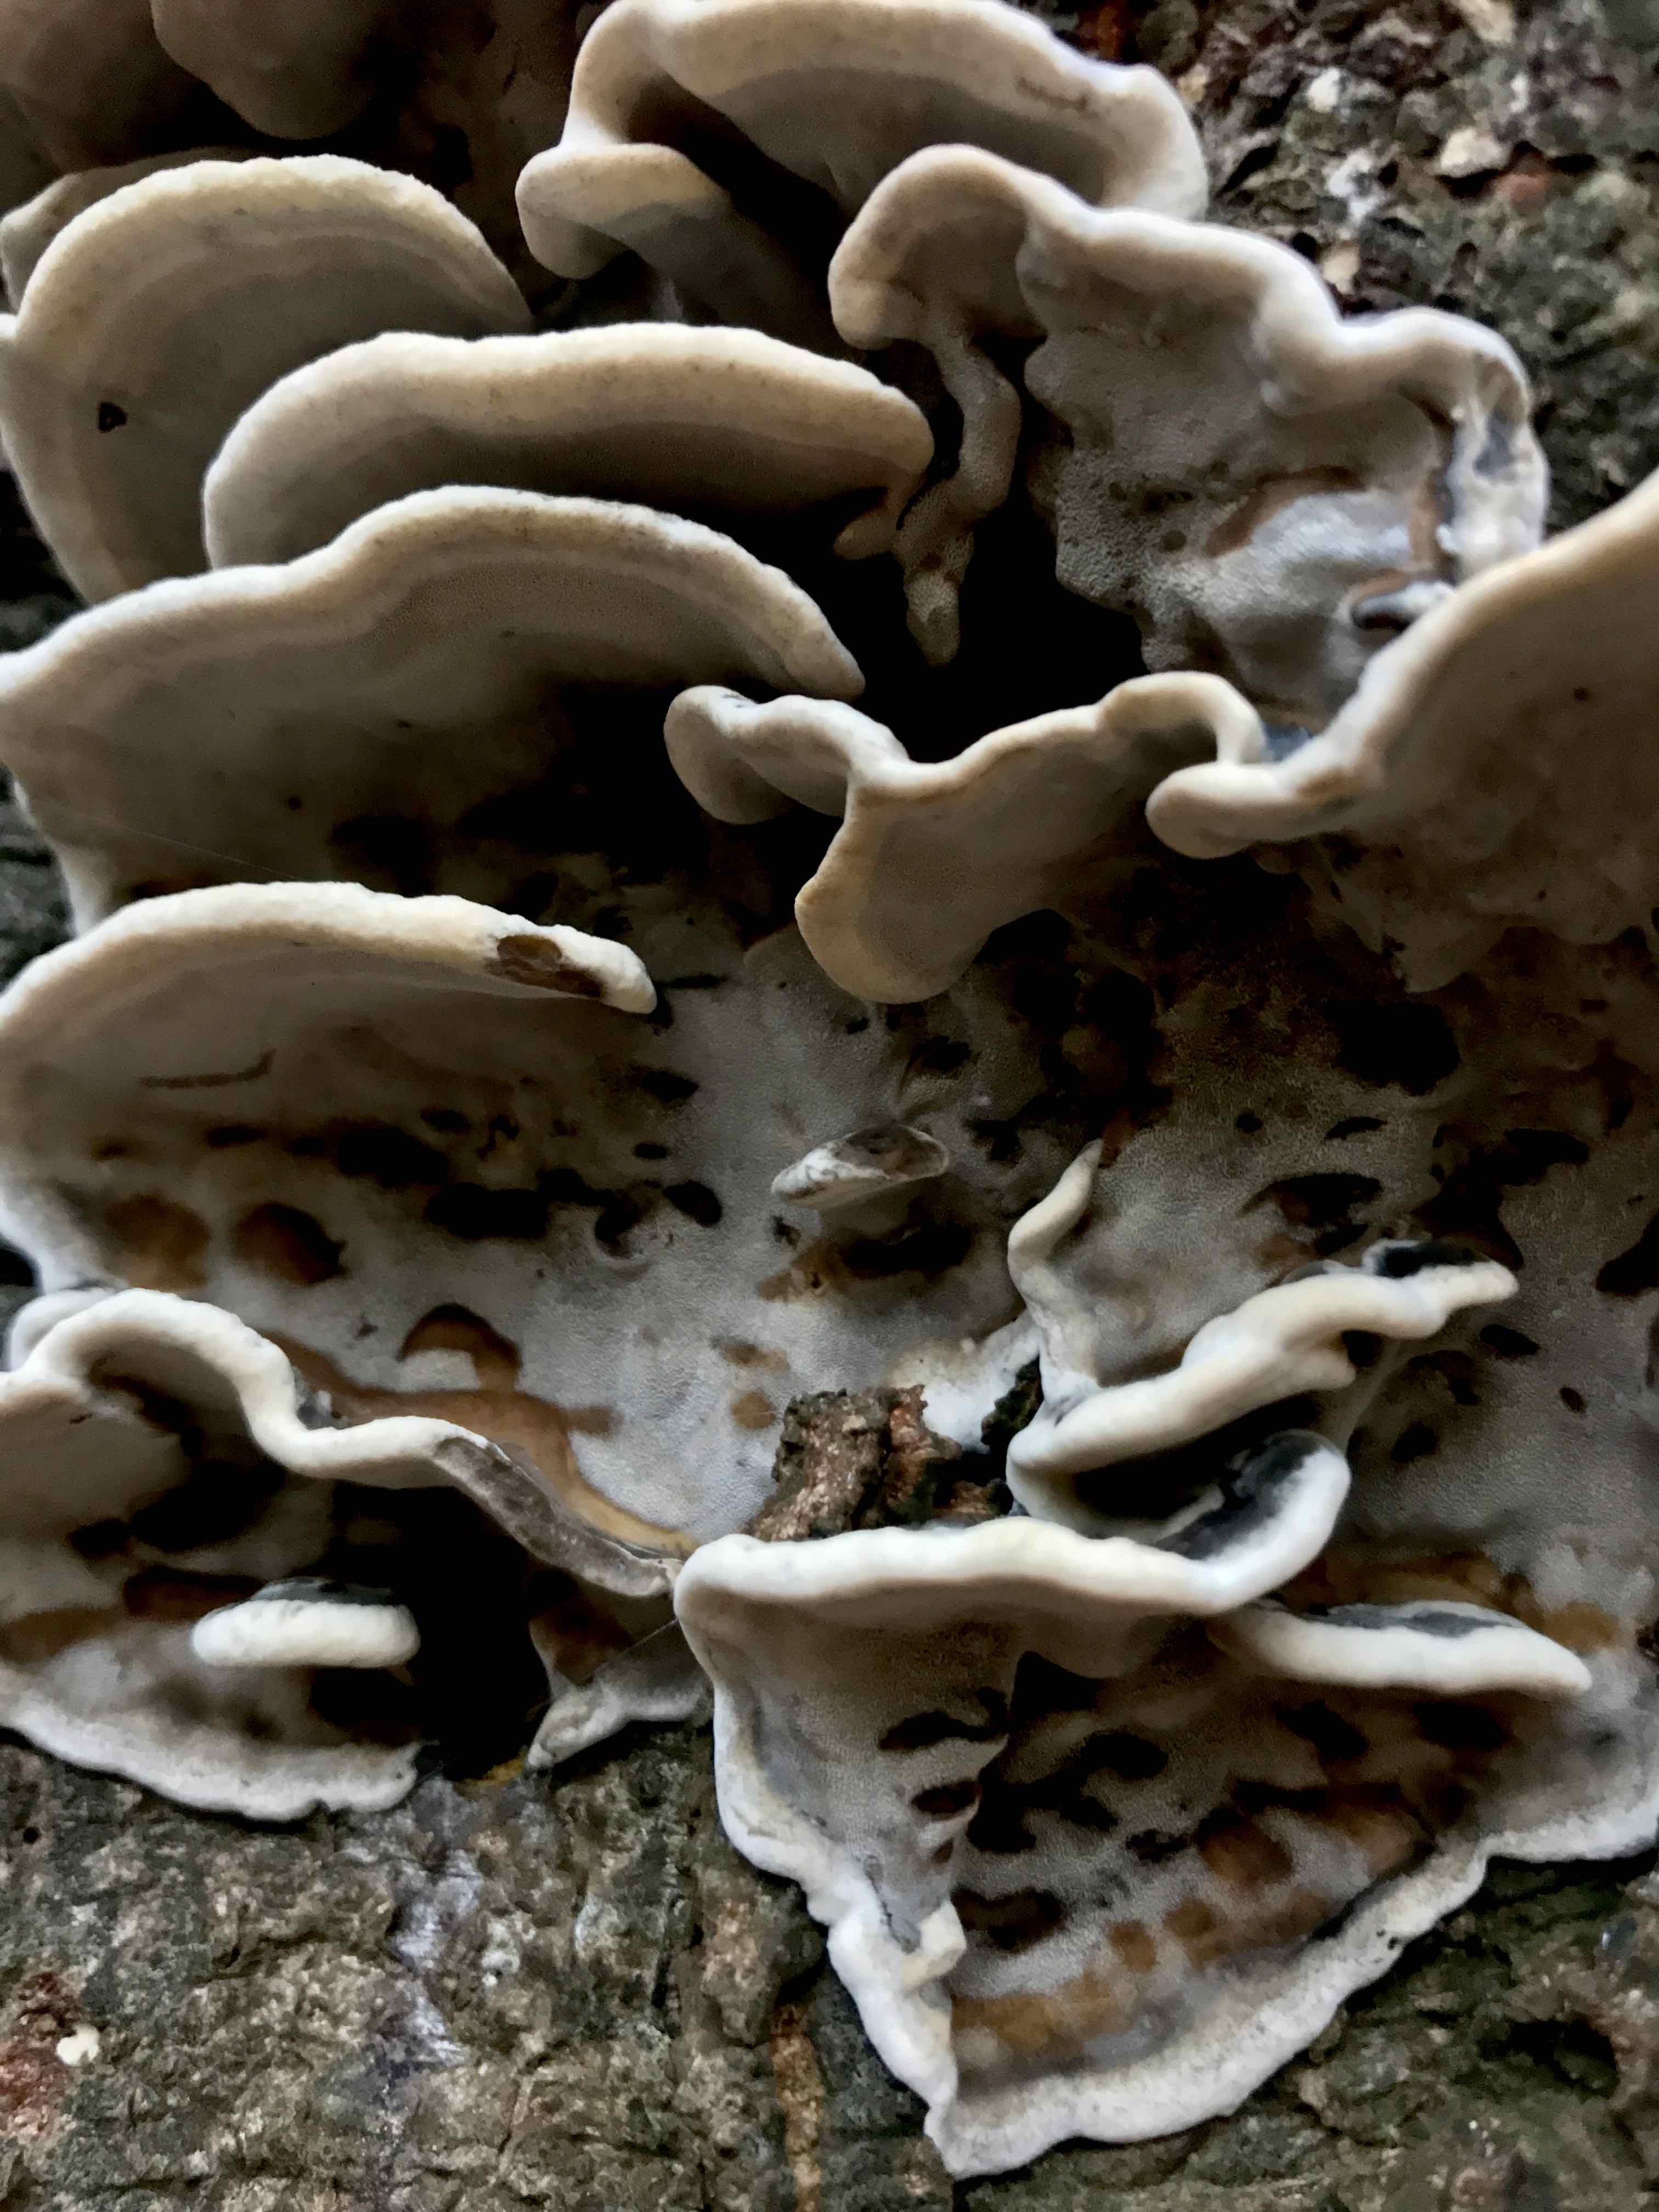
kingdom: Fungi
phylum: Basidiomycota
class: Agaricomycetes
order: Polyporales
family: Phanerochaetaceae
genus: Bjerkandera
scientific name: Bjerkandera adusta
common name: sveden sodporesvamp
